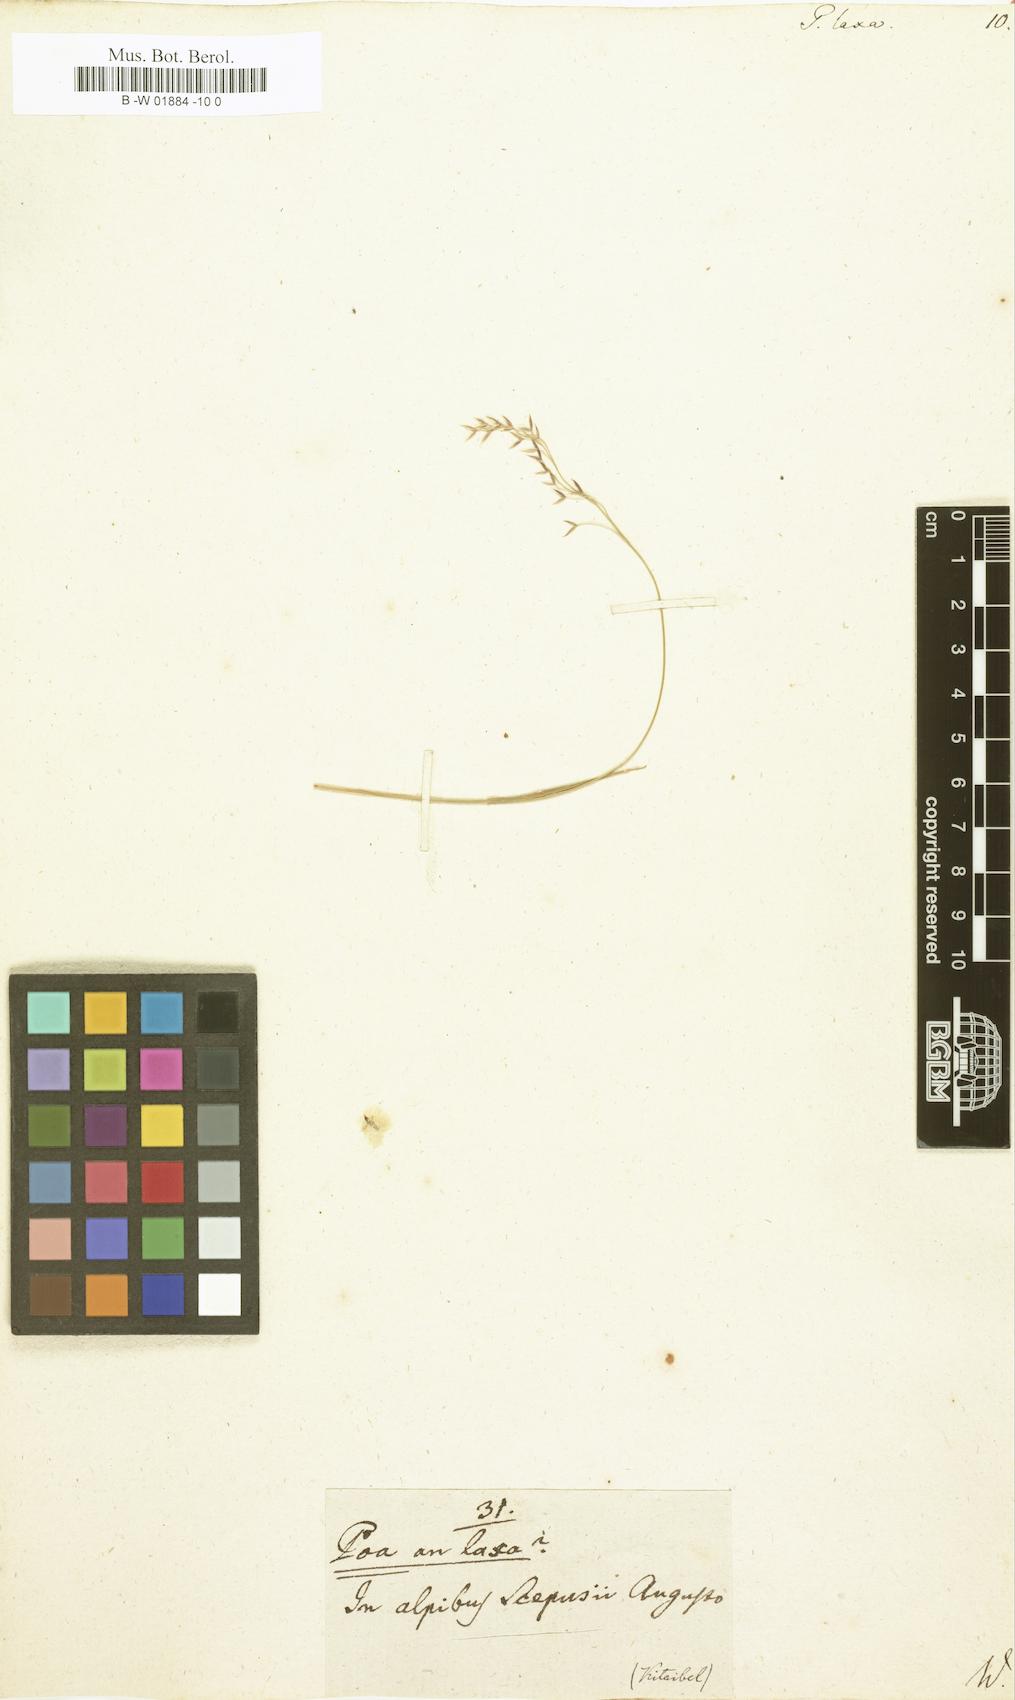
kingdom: Plantae
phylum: Tracheophyta
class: Liliopsida
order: Poales
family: Poaceae
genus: Poa
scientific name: Poa laxa
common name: Lax bluegrass
